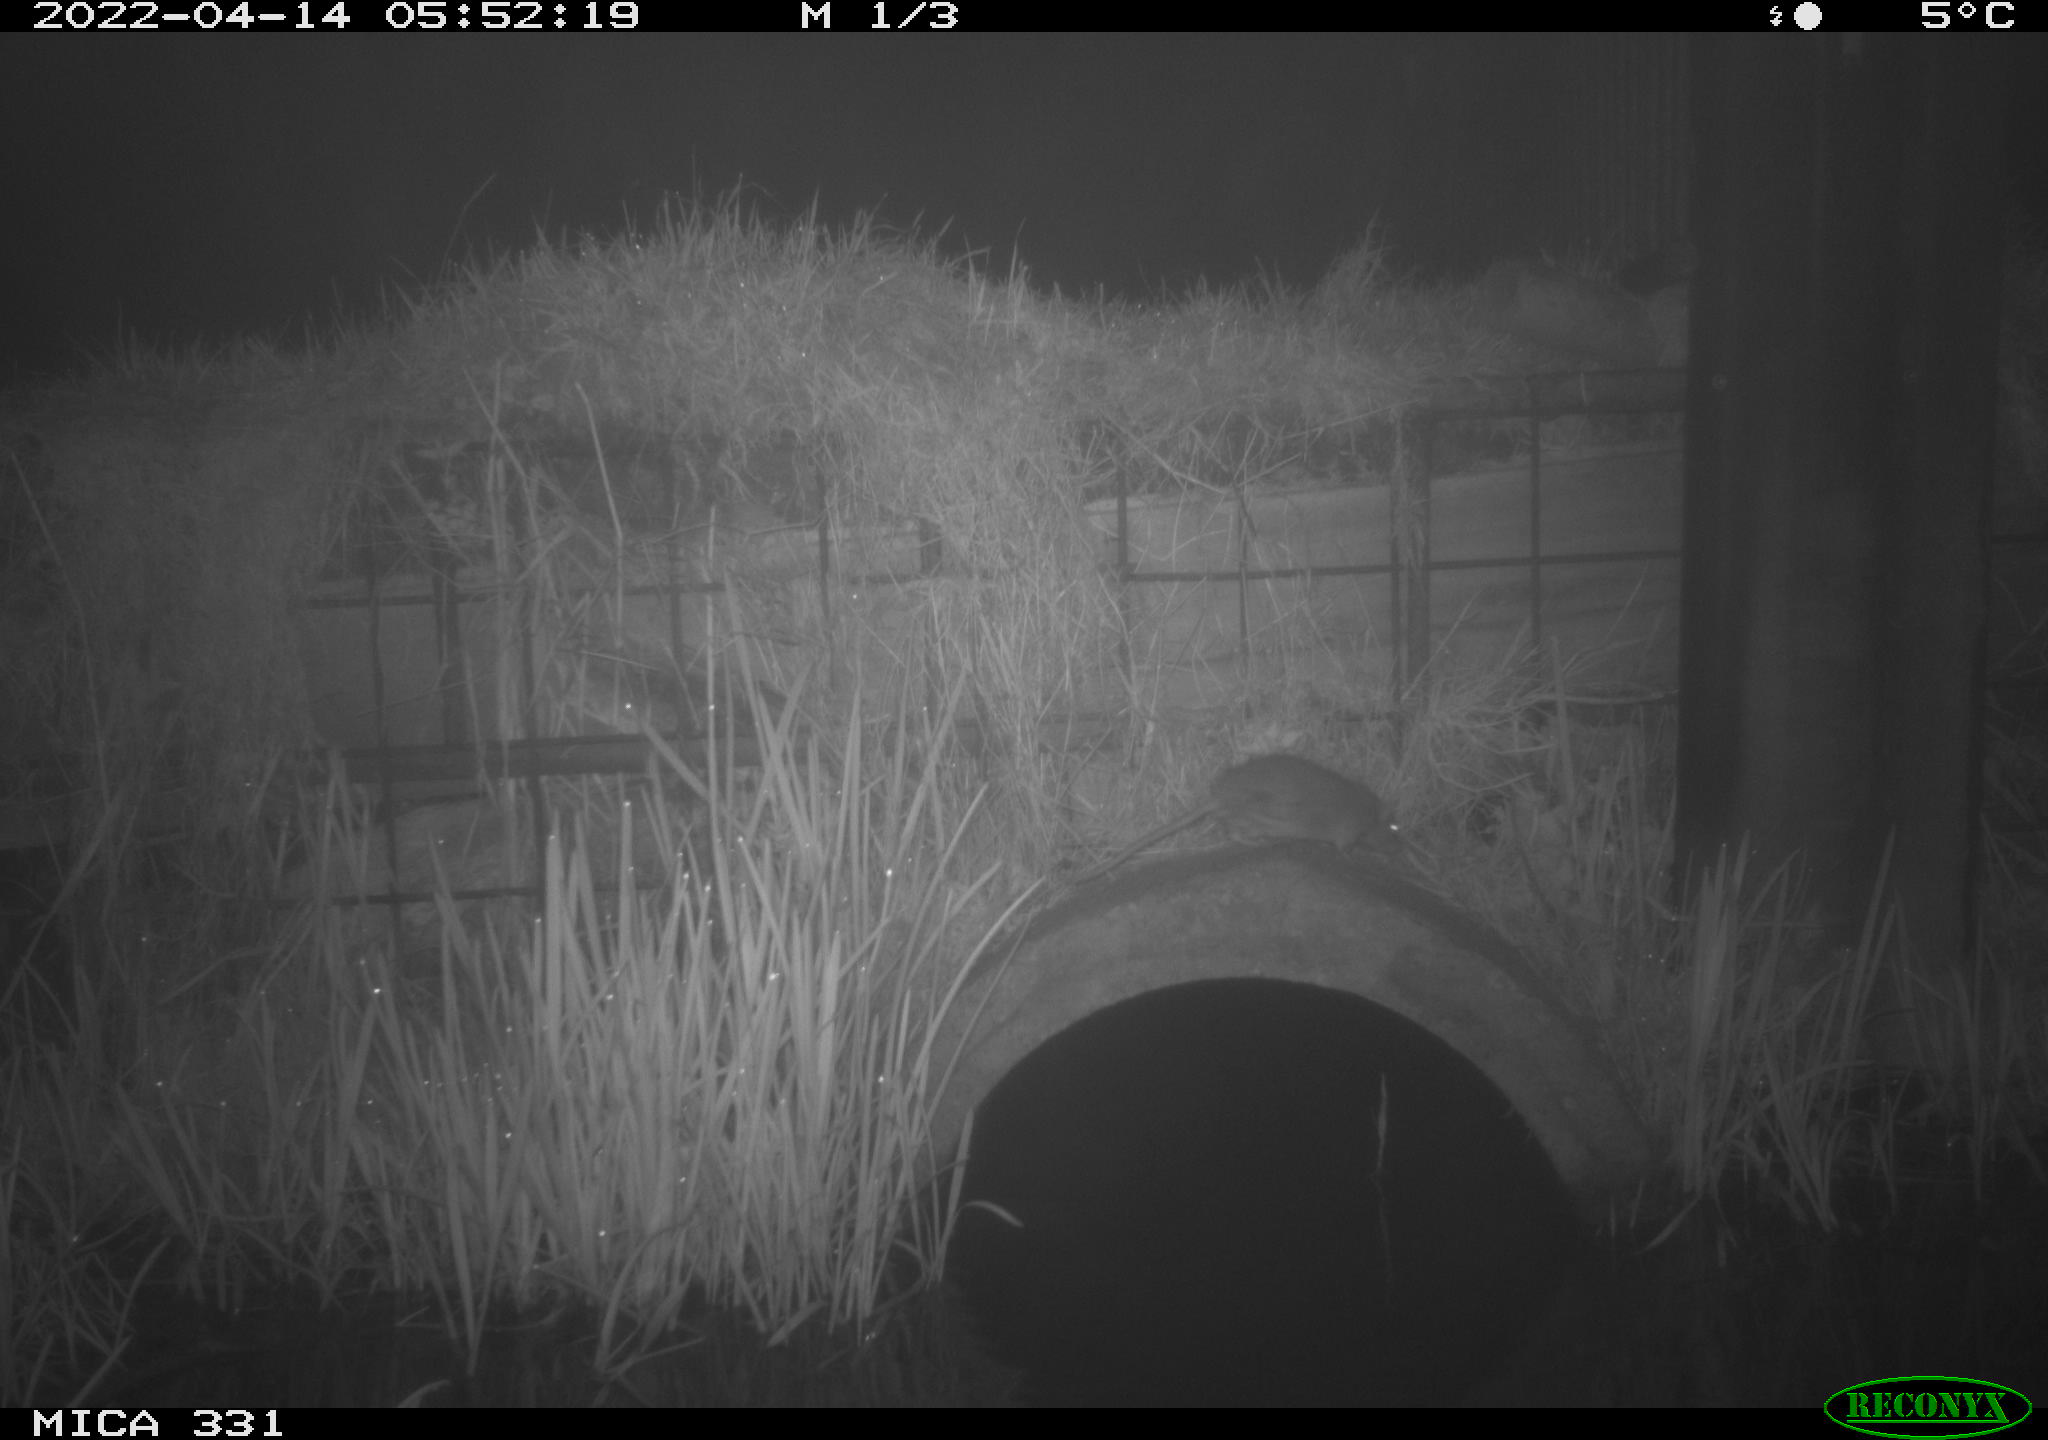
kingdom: Animalia
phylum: Chordata
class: Mammalia
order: Rodentia
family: Muridae
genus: Rattus
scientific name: Rattus norvegicus
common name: Brown rat
